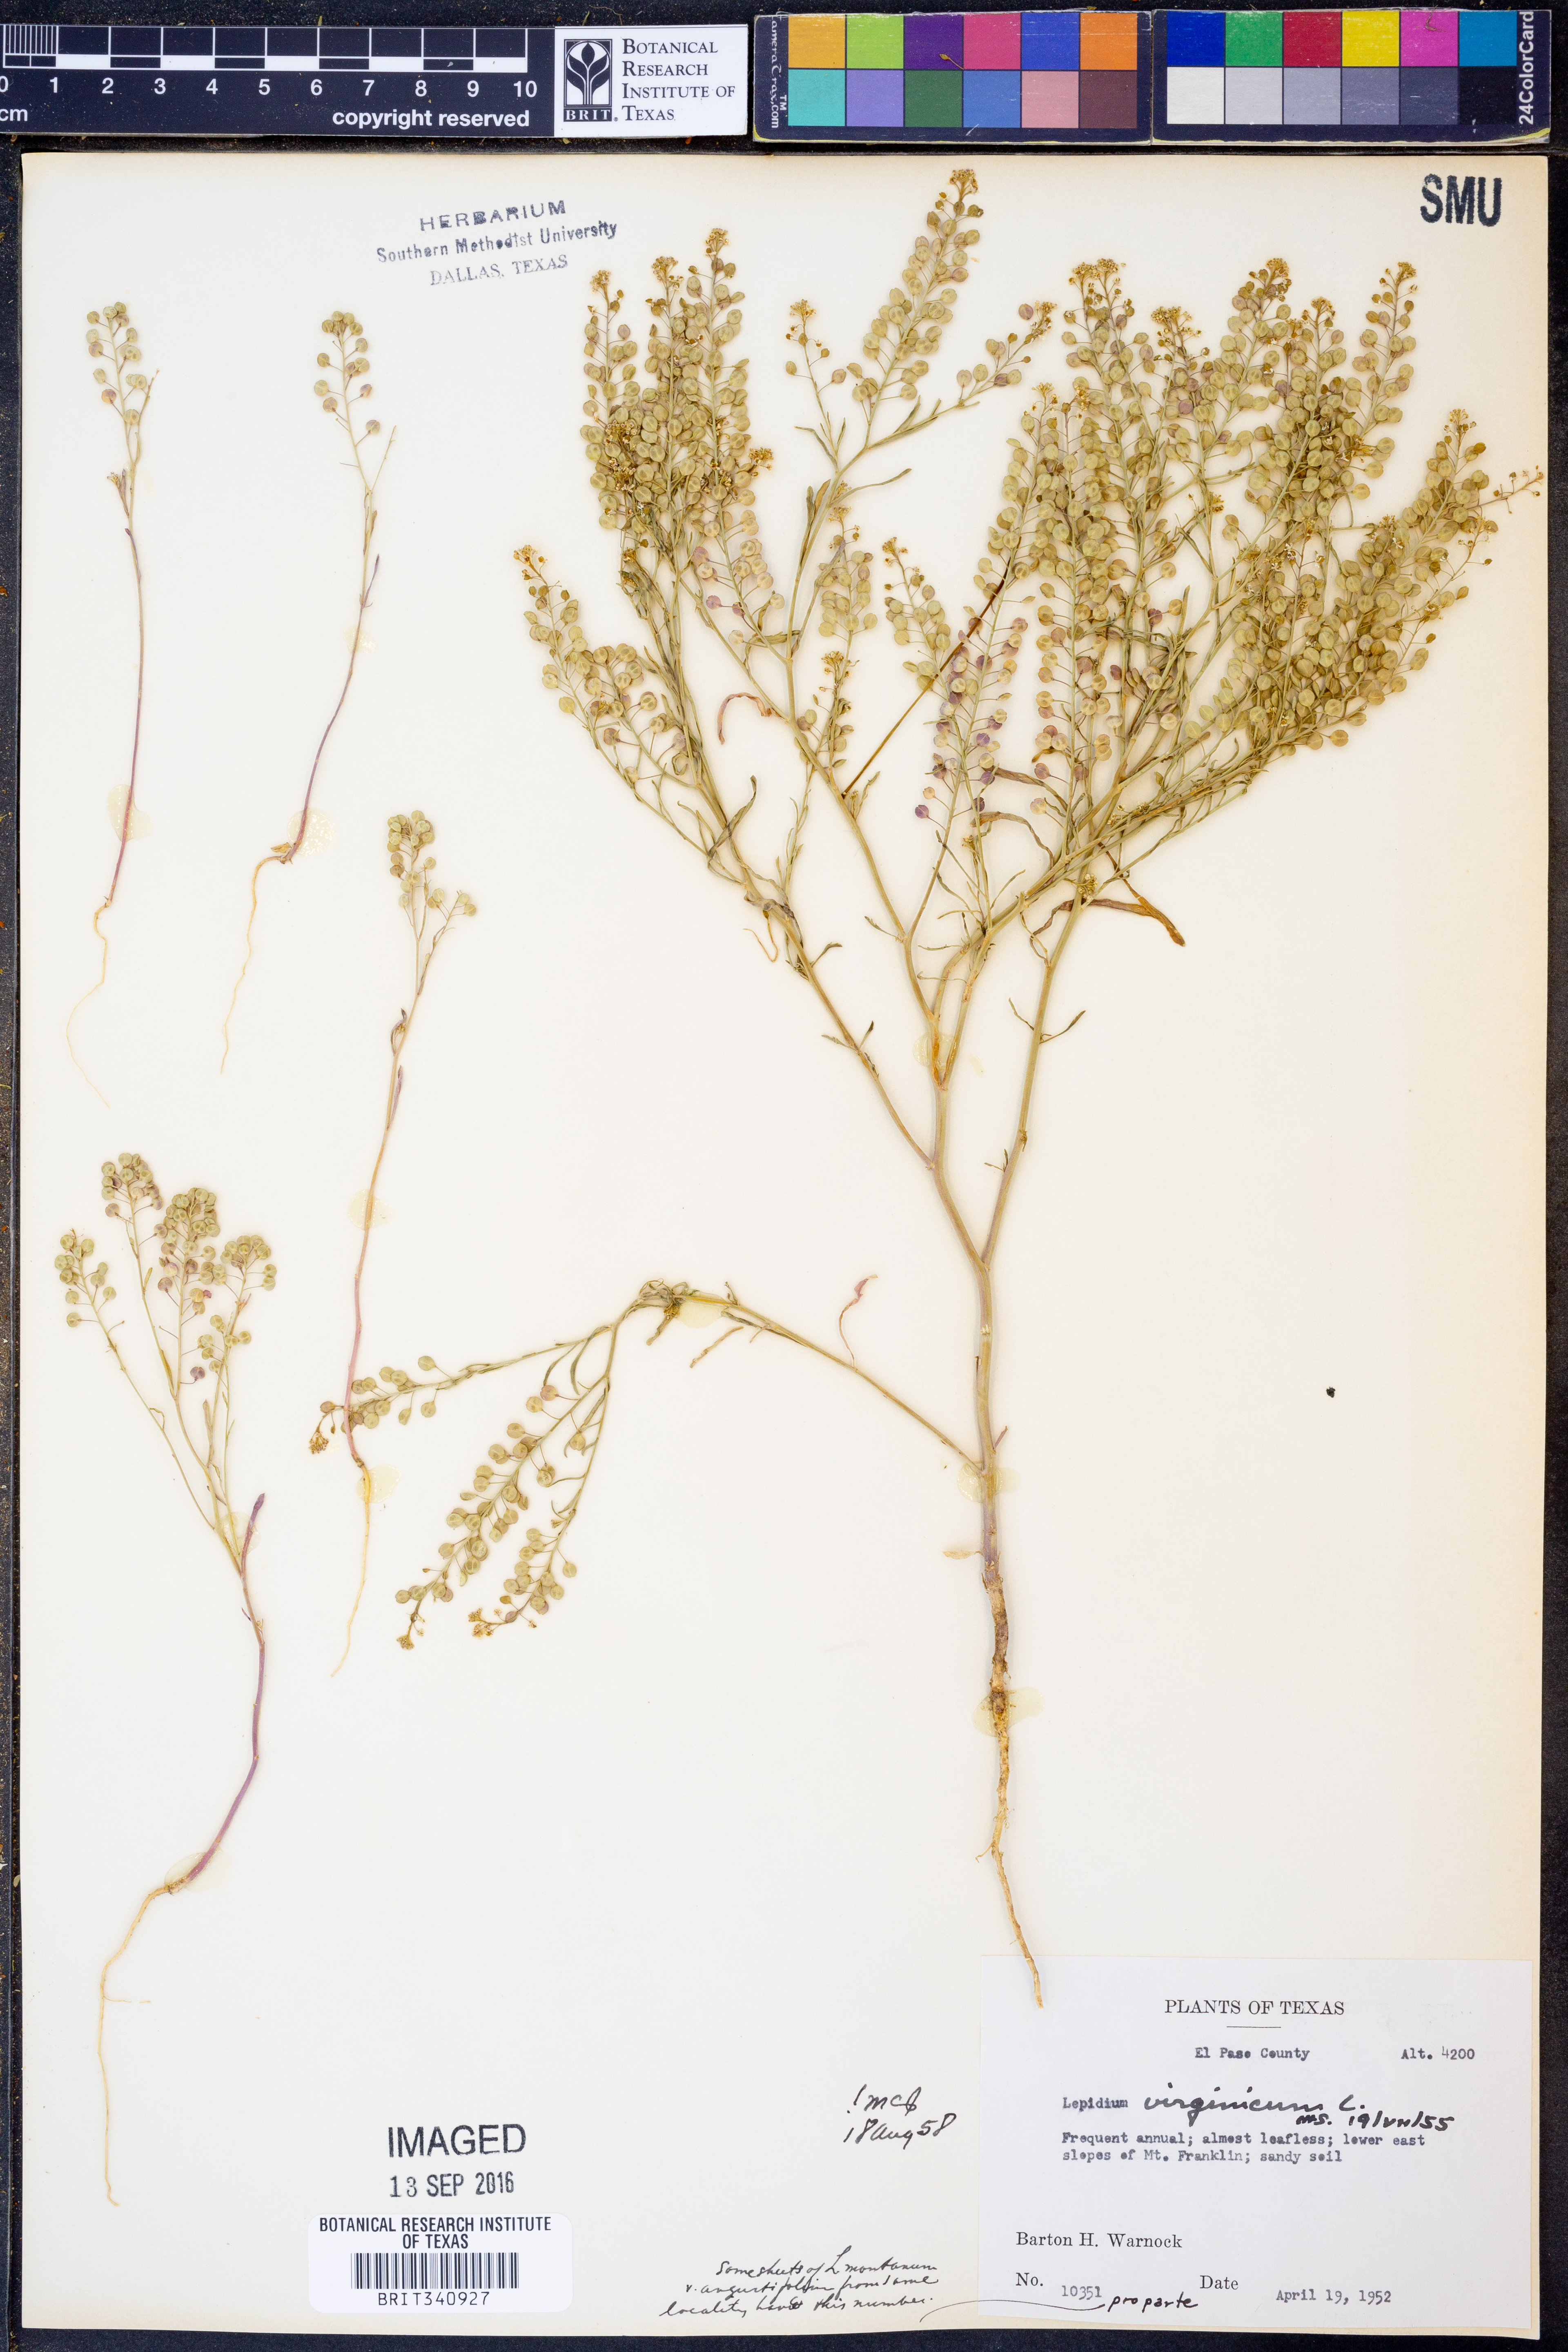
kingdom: Plantae
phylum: Tracheophyta
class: Magnoliopsida
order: Brassicales
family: Brassicaceae
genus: Lepidium
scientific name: Lepidium virginicum
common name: Least pepperwort
